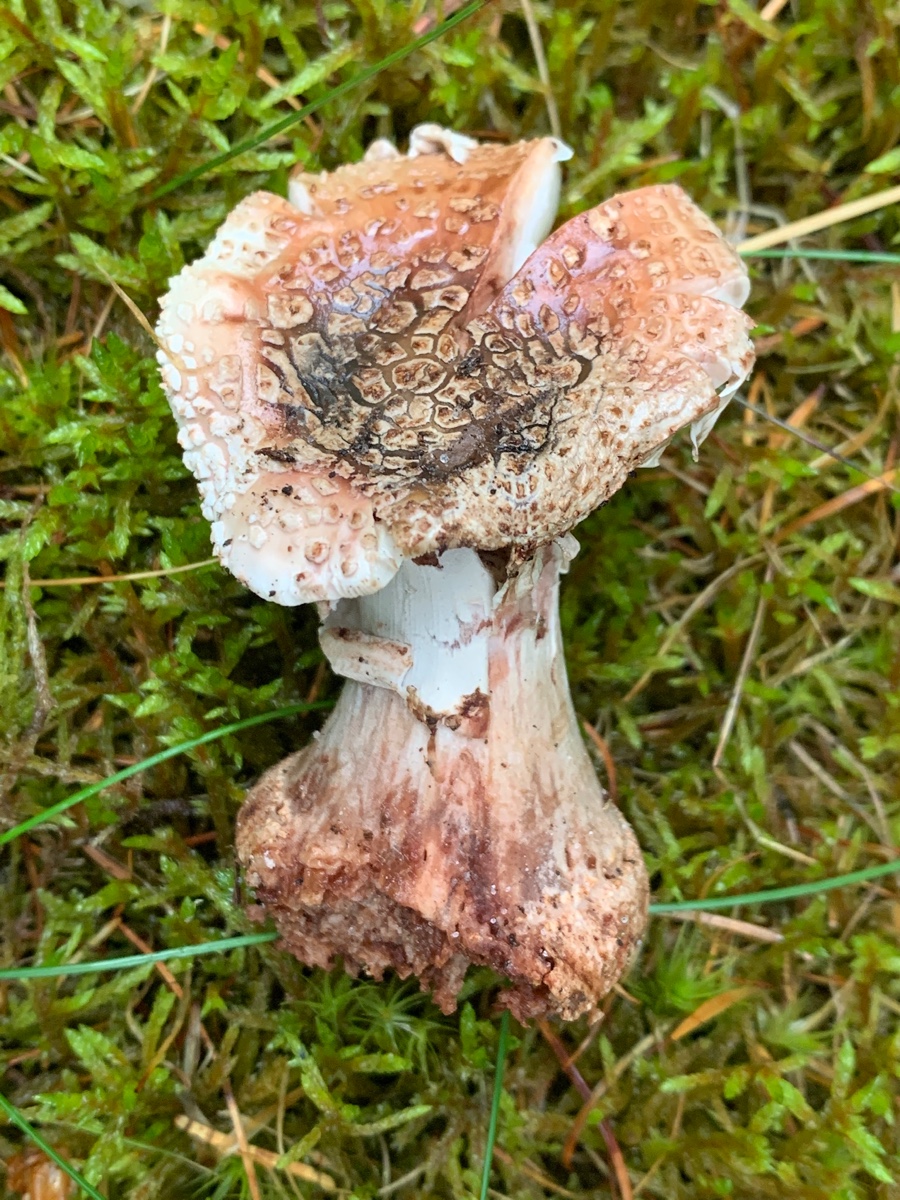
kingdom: Fungi
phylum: Basidiomycota
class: Agaricomycetes
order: Agaricales
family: Amanitaceae
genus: Amanita
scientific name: Amanita rubescens
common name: rødmende fluesvamp
